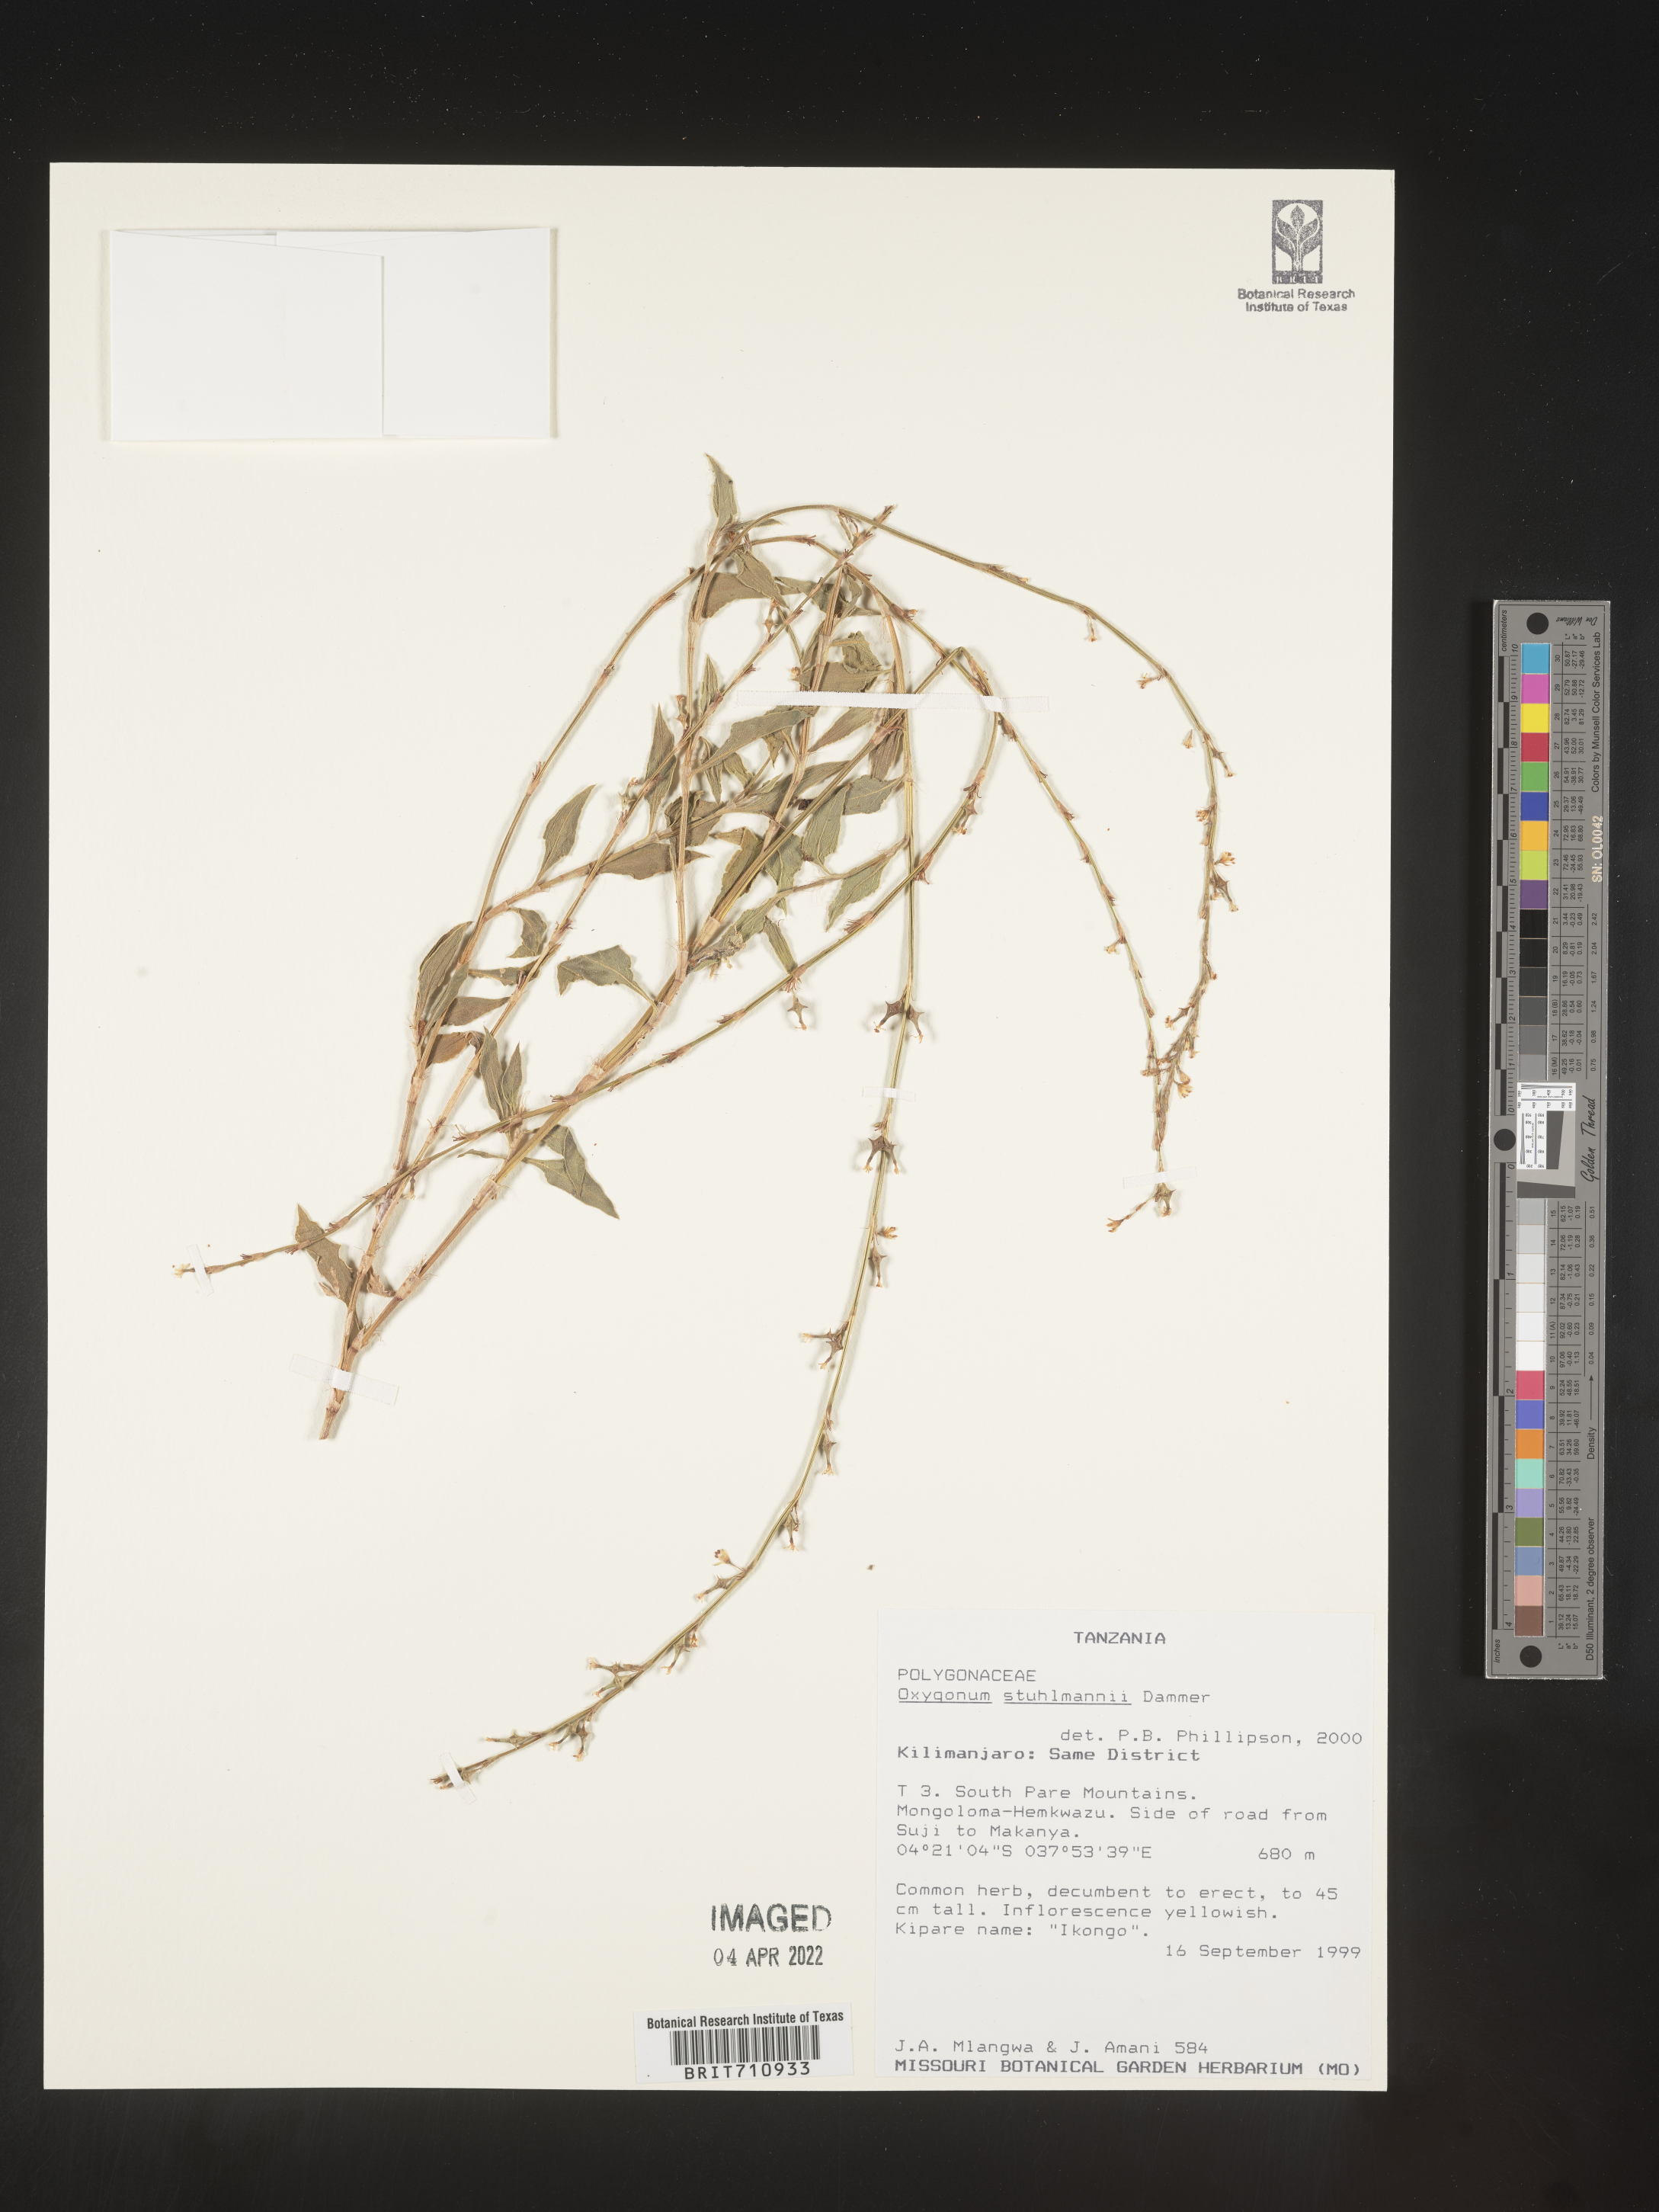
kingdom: Plantae
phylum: Tracheophyta
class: Magnoliopsida
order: Caryophyllales
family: Polygonaceae
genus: Oxygonum
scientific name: Oxygonum
